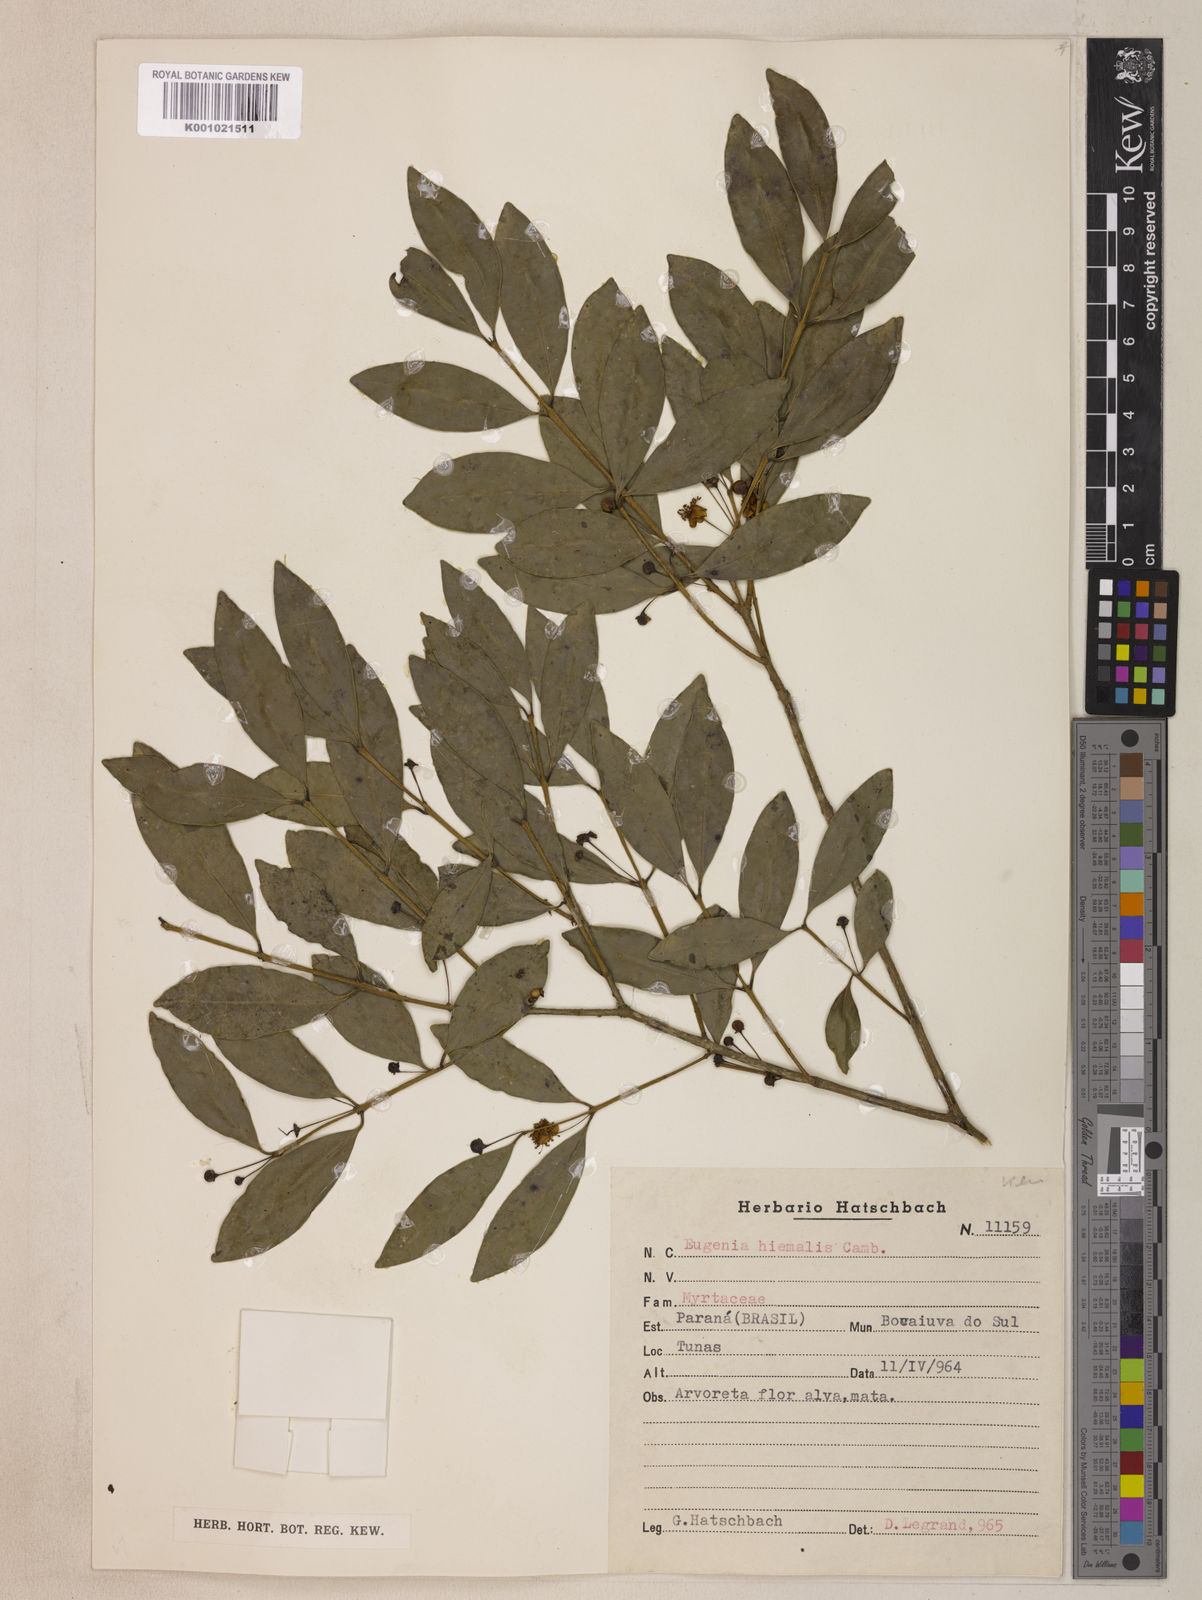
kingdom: Plantae
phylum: Tracheophyta
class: Magnoliopsida
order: Myrtales
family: Myrtaceae
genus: Eugenia
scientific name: Eugenia hiemalis
